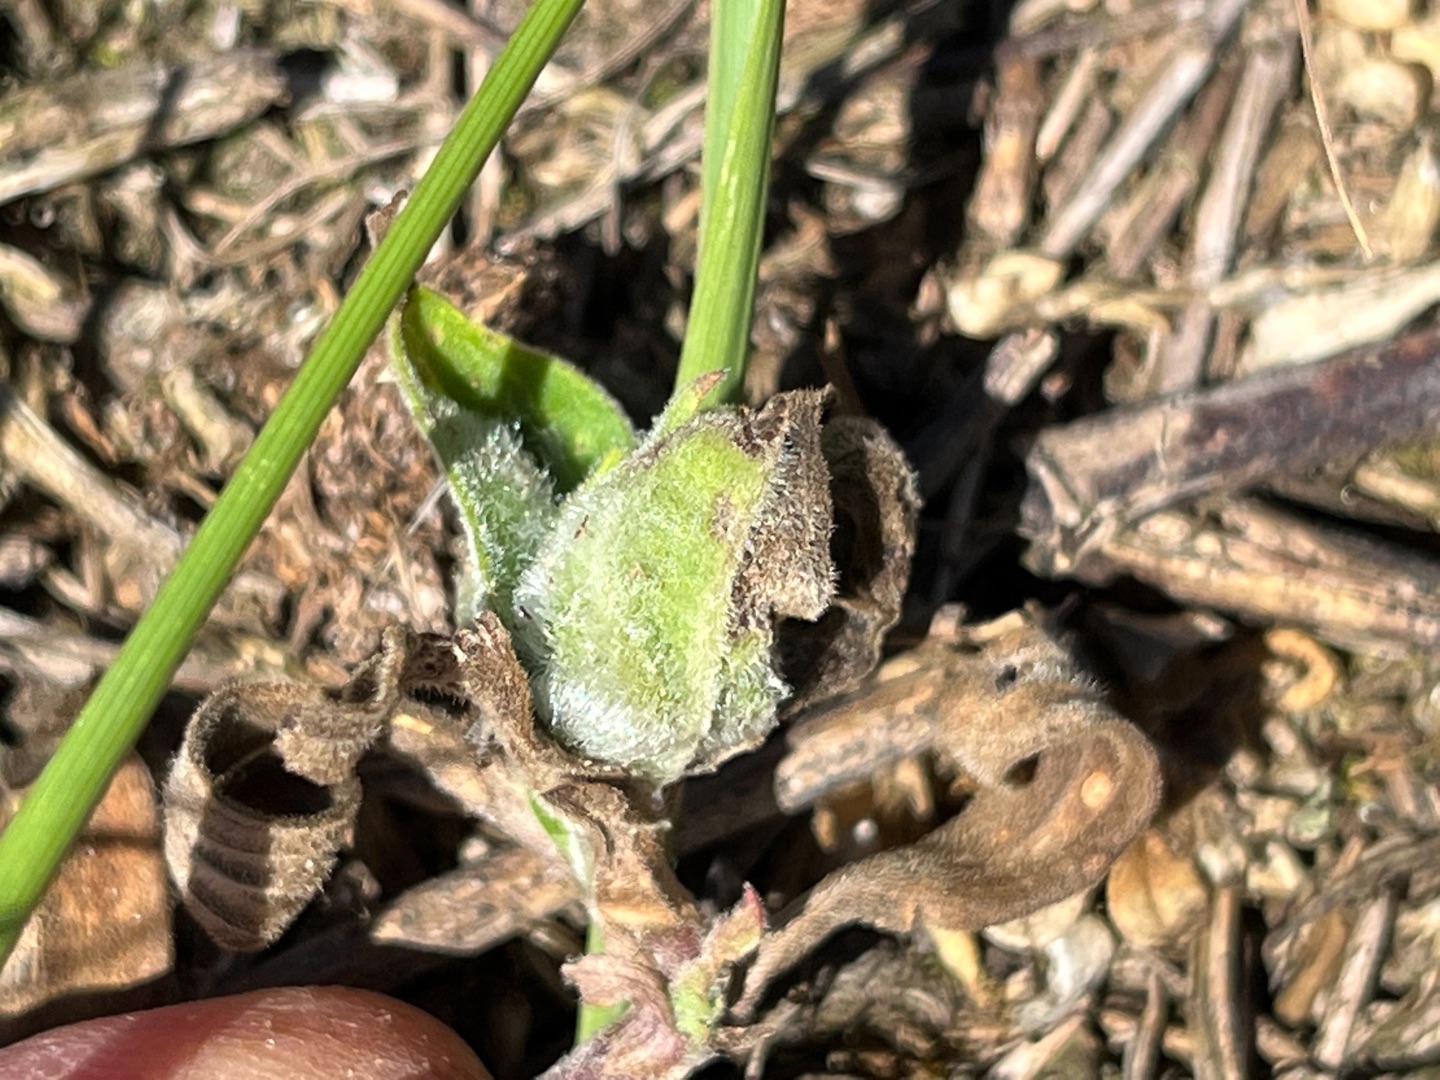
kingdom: Animalia
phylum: Arthropoda
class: Insecta
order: Diptera
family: Cecidomyiidae
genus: Neomikiella
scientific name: Neomikiella lychnidis
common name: Oldingegalmyg
